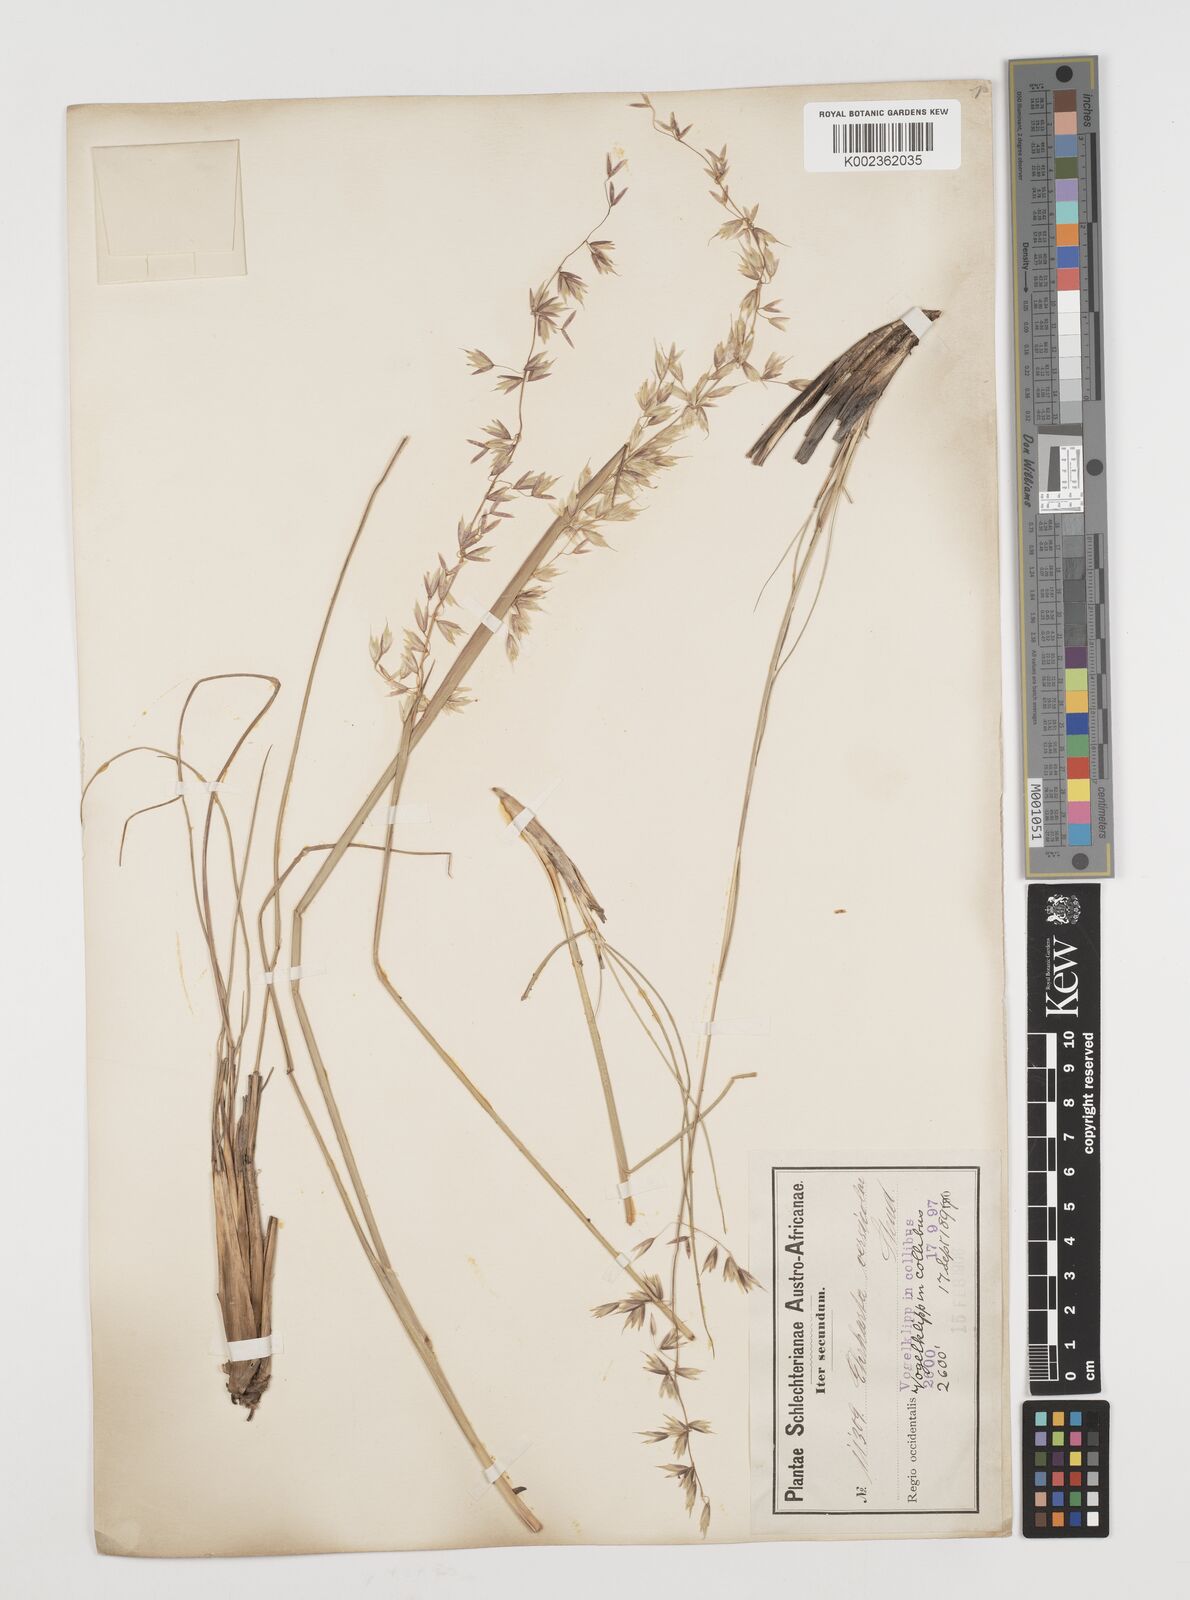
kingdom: Plantae
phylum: Tracheophyta
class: Liliopsida
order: Poales
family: Poaceae
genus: Ehrharta
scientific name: Ehrharta calycina
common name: Perennial veldtgrass
